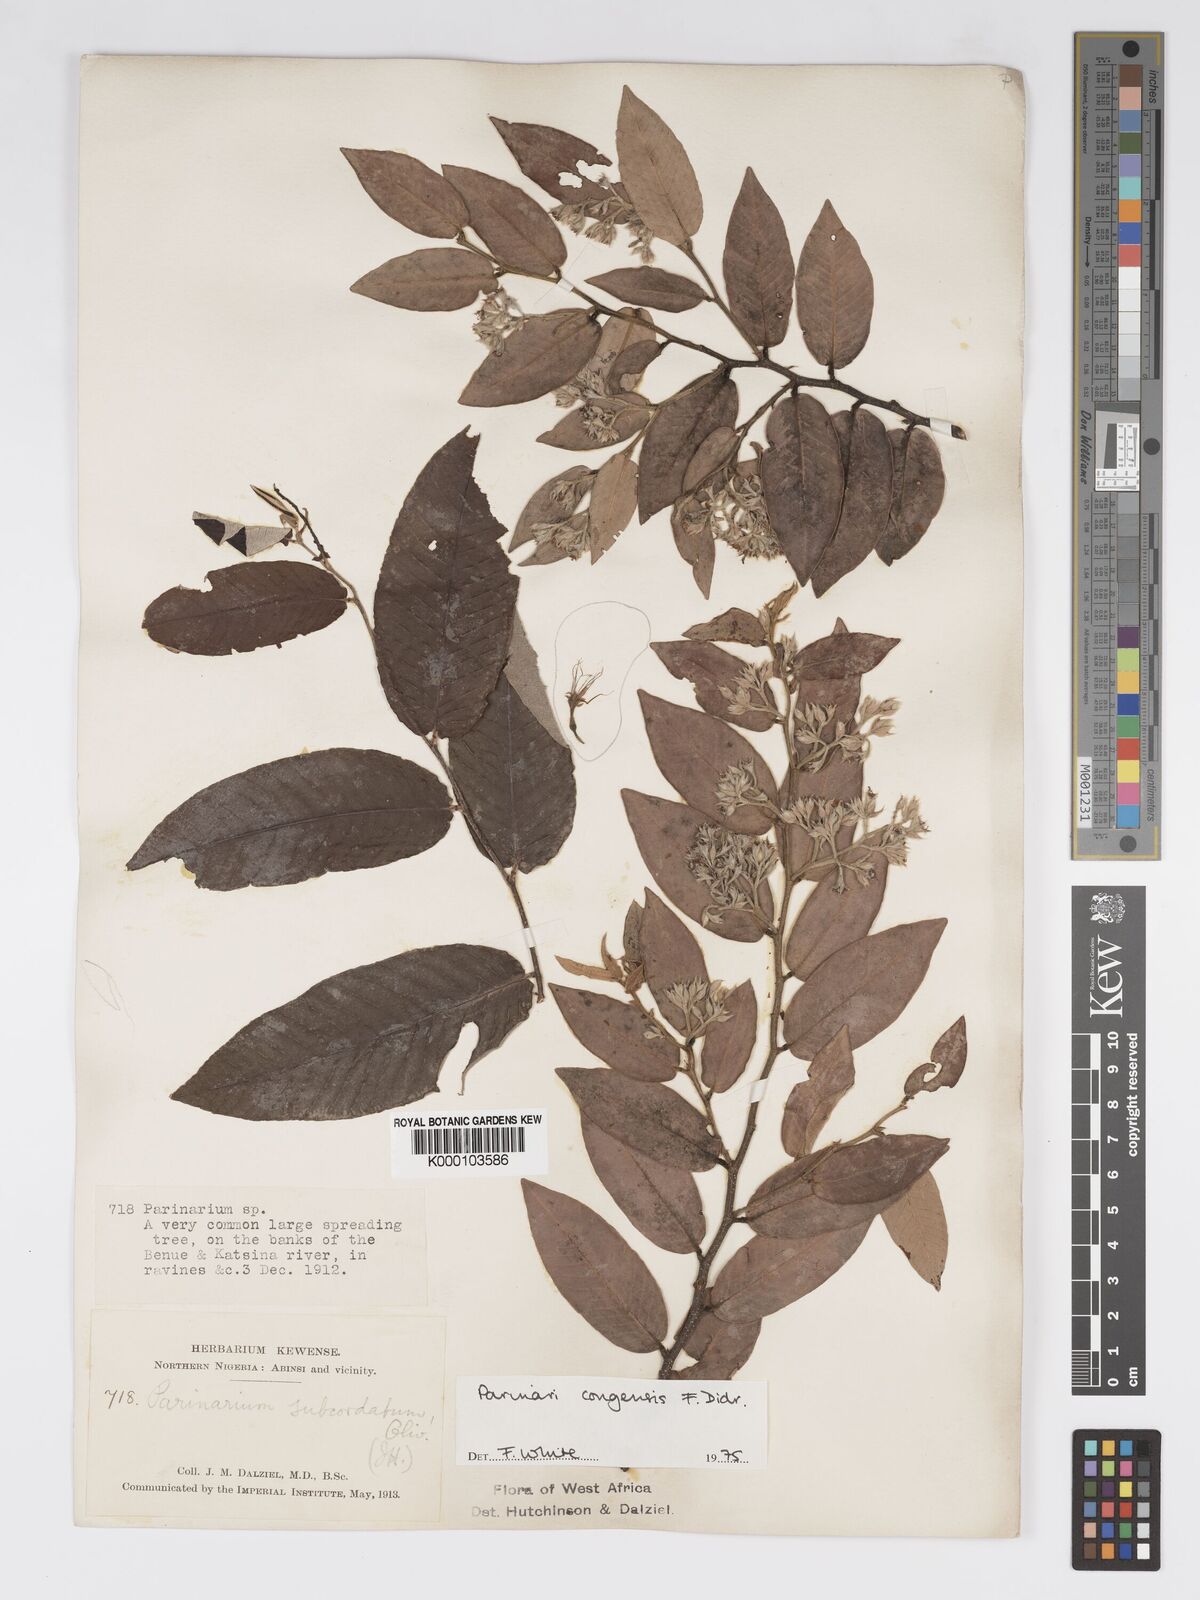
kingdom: Plantae
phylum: Tracheophyta
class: Magnoliopsida
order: Malpighiales
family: Chrysobalanaceae
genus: Parinari
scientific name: Parinari congensis
